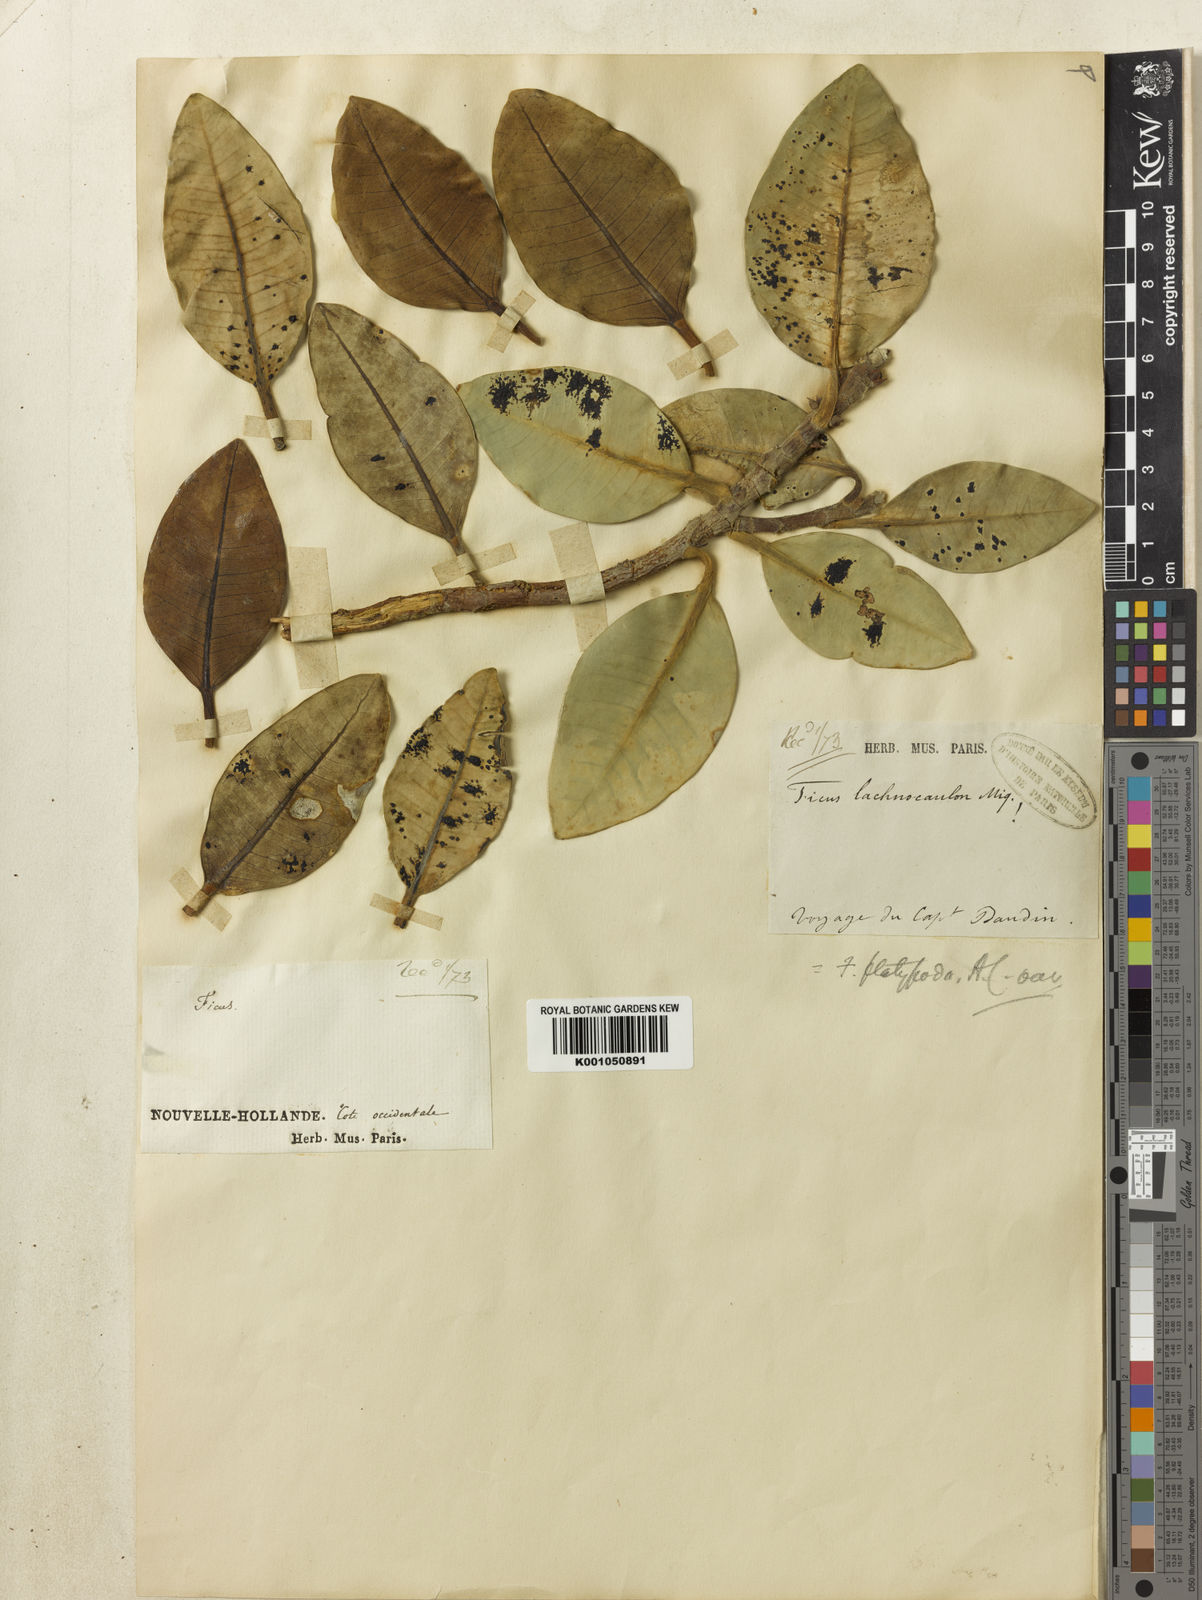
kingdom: Plantae
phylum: Tracheophyta
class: Magnoliopsida
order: Rosales
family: Moraceae
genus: Ficus
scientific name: Ficus brachypoda
